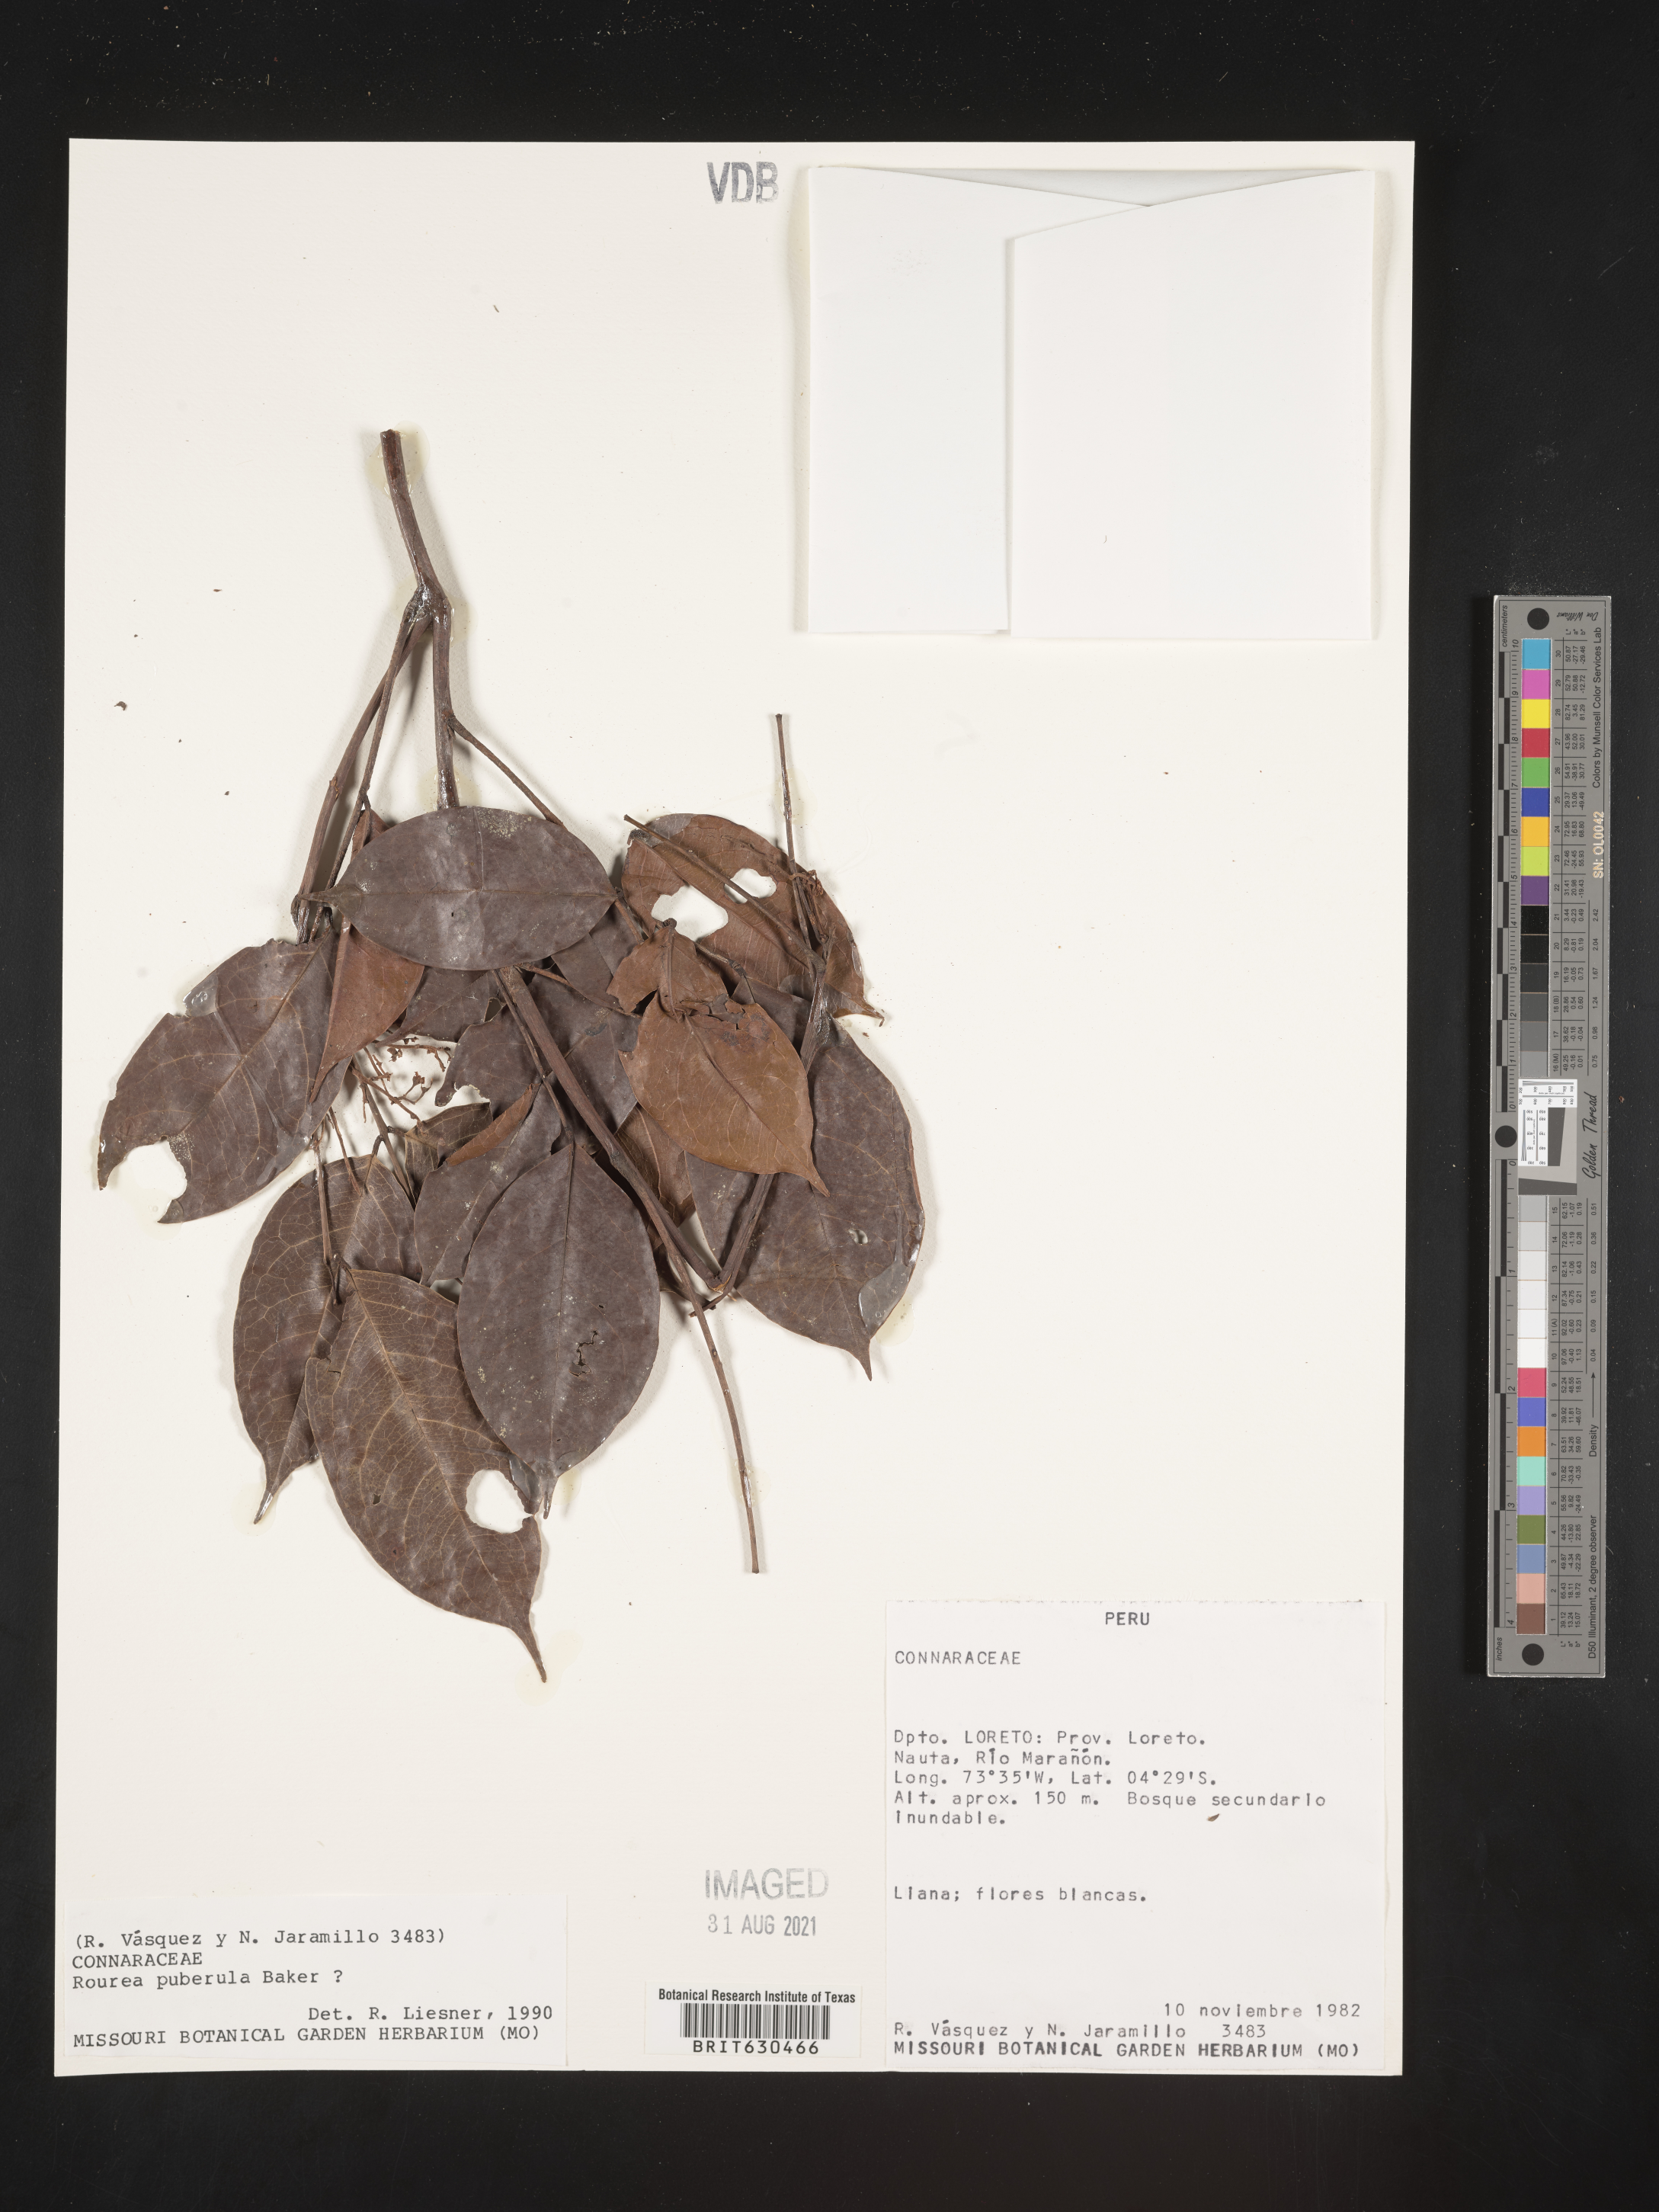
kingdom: Plantae
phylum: Tracheophyta
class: Magnoliopsida
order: Oxalidales
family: Connaraceae
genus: Rourea
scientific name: Rourea puberula
